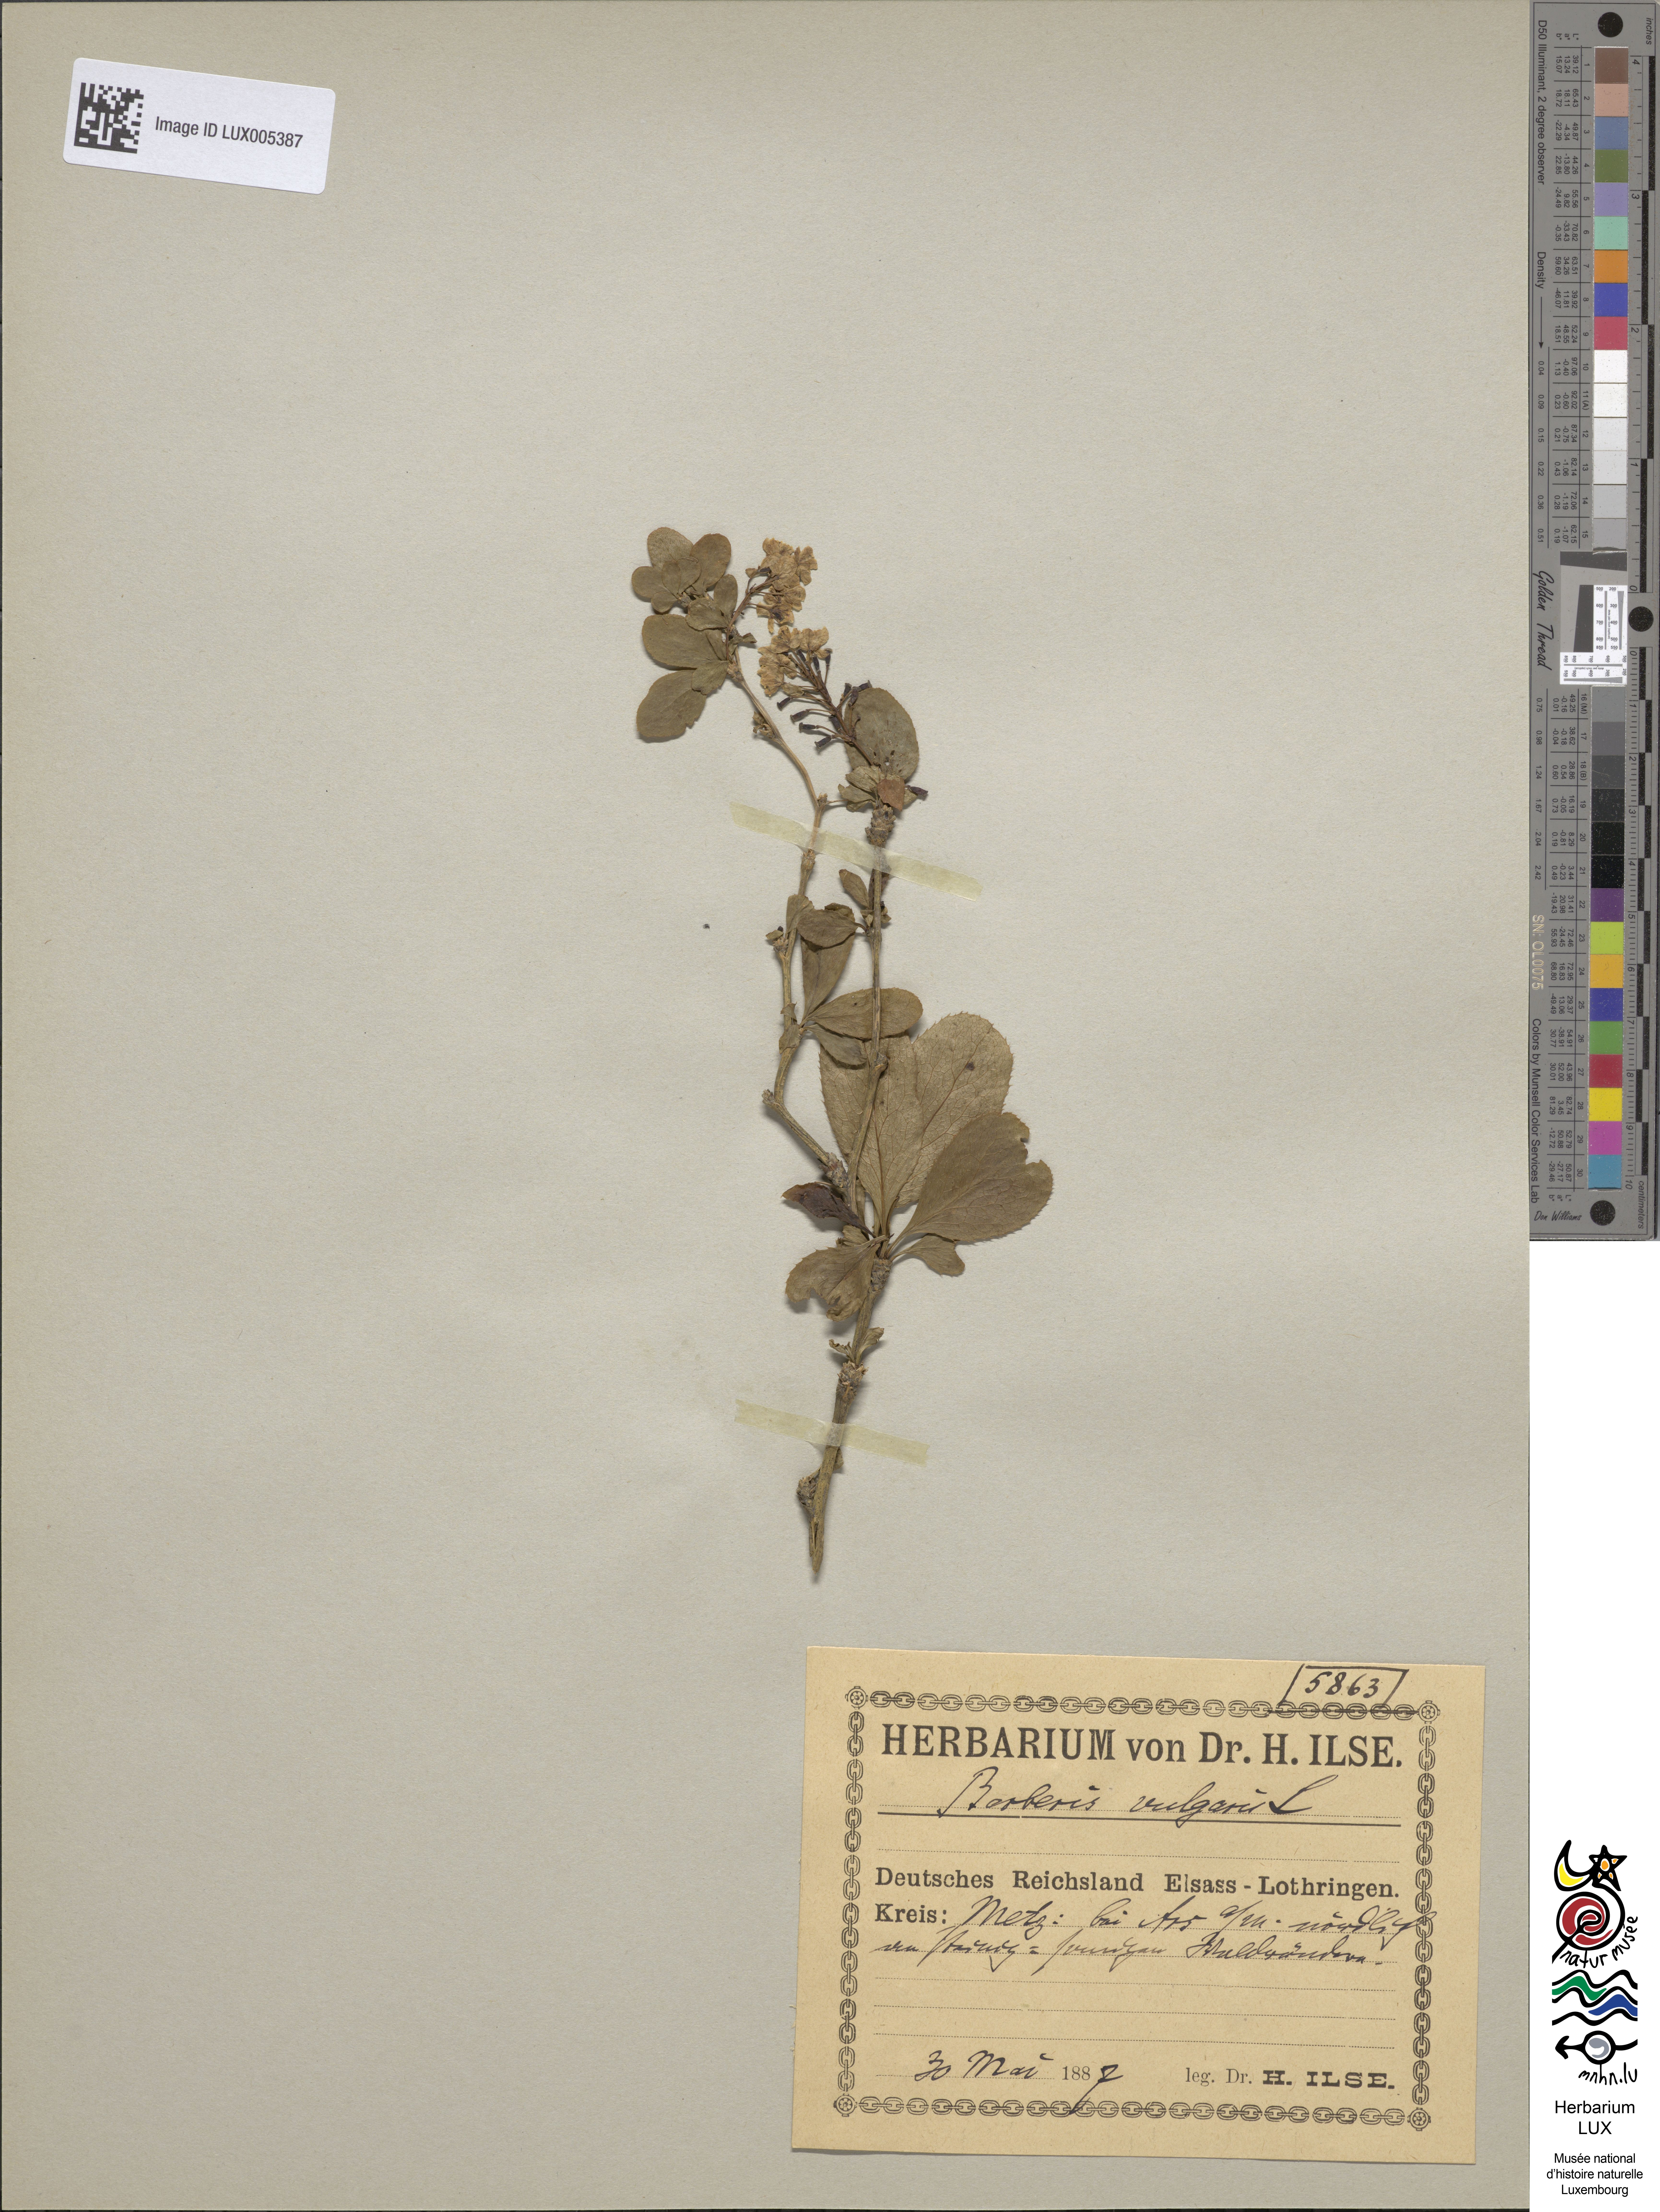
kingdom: Plantae
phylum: Tracheophyta
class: Magnoliopsida
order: Ranunculales
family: Berberidaceae
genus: Berberis
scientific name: Berberis vulgaris
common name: Barberry
